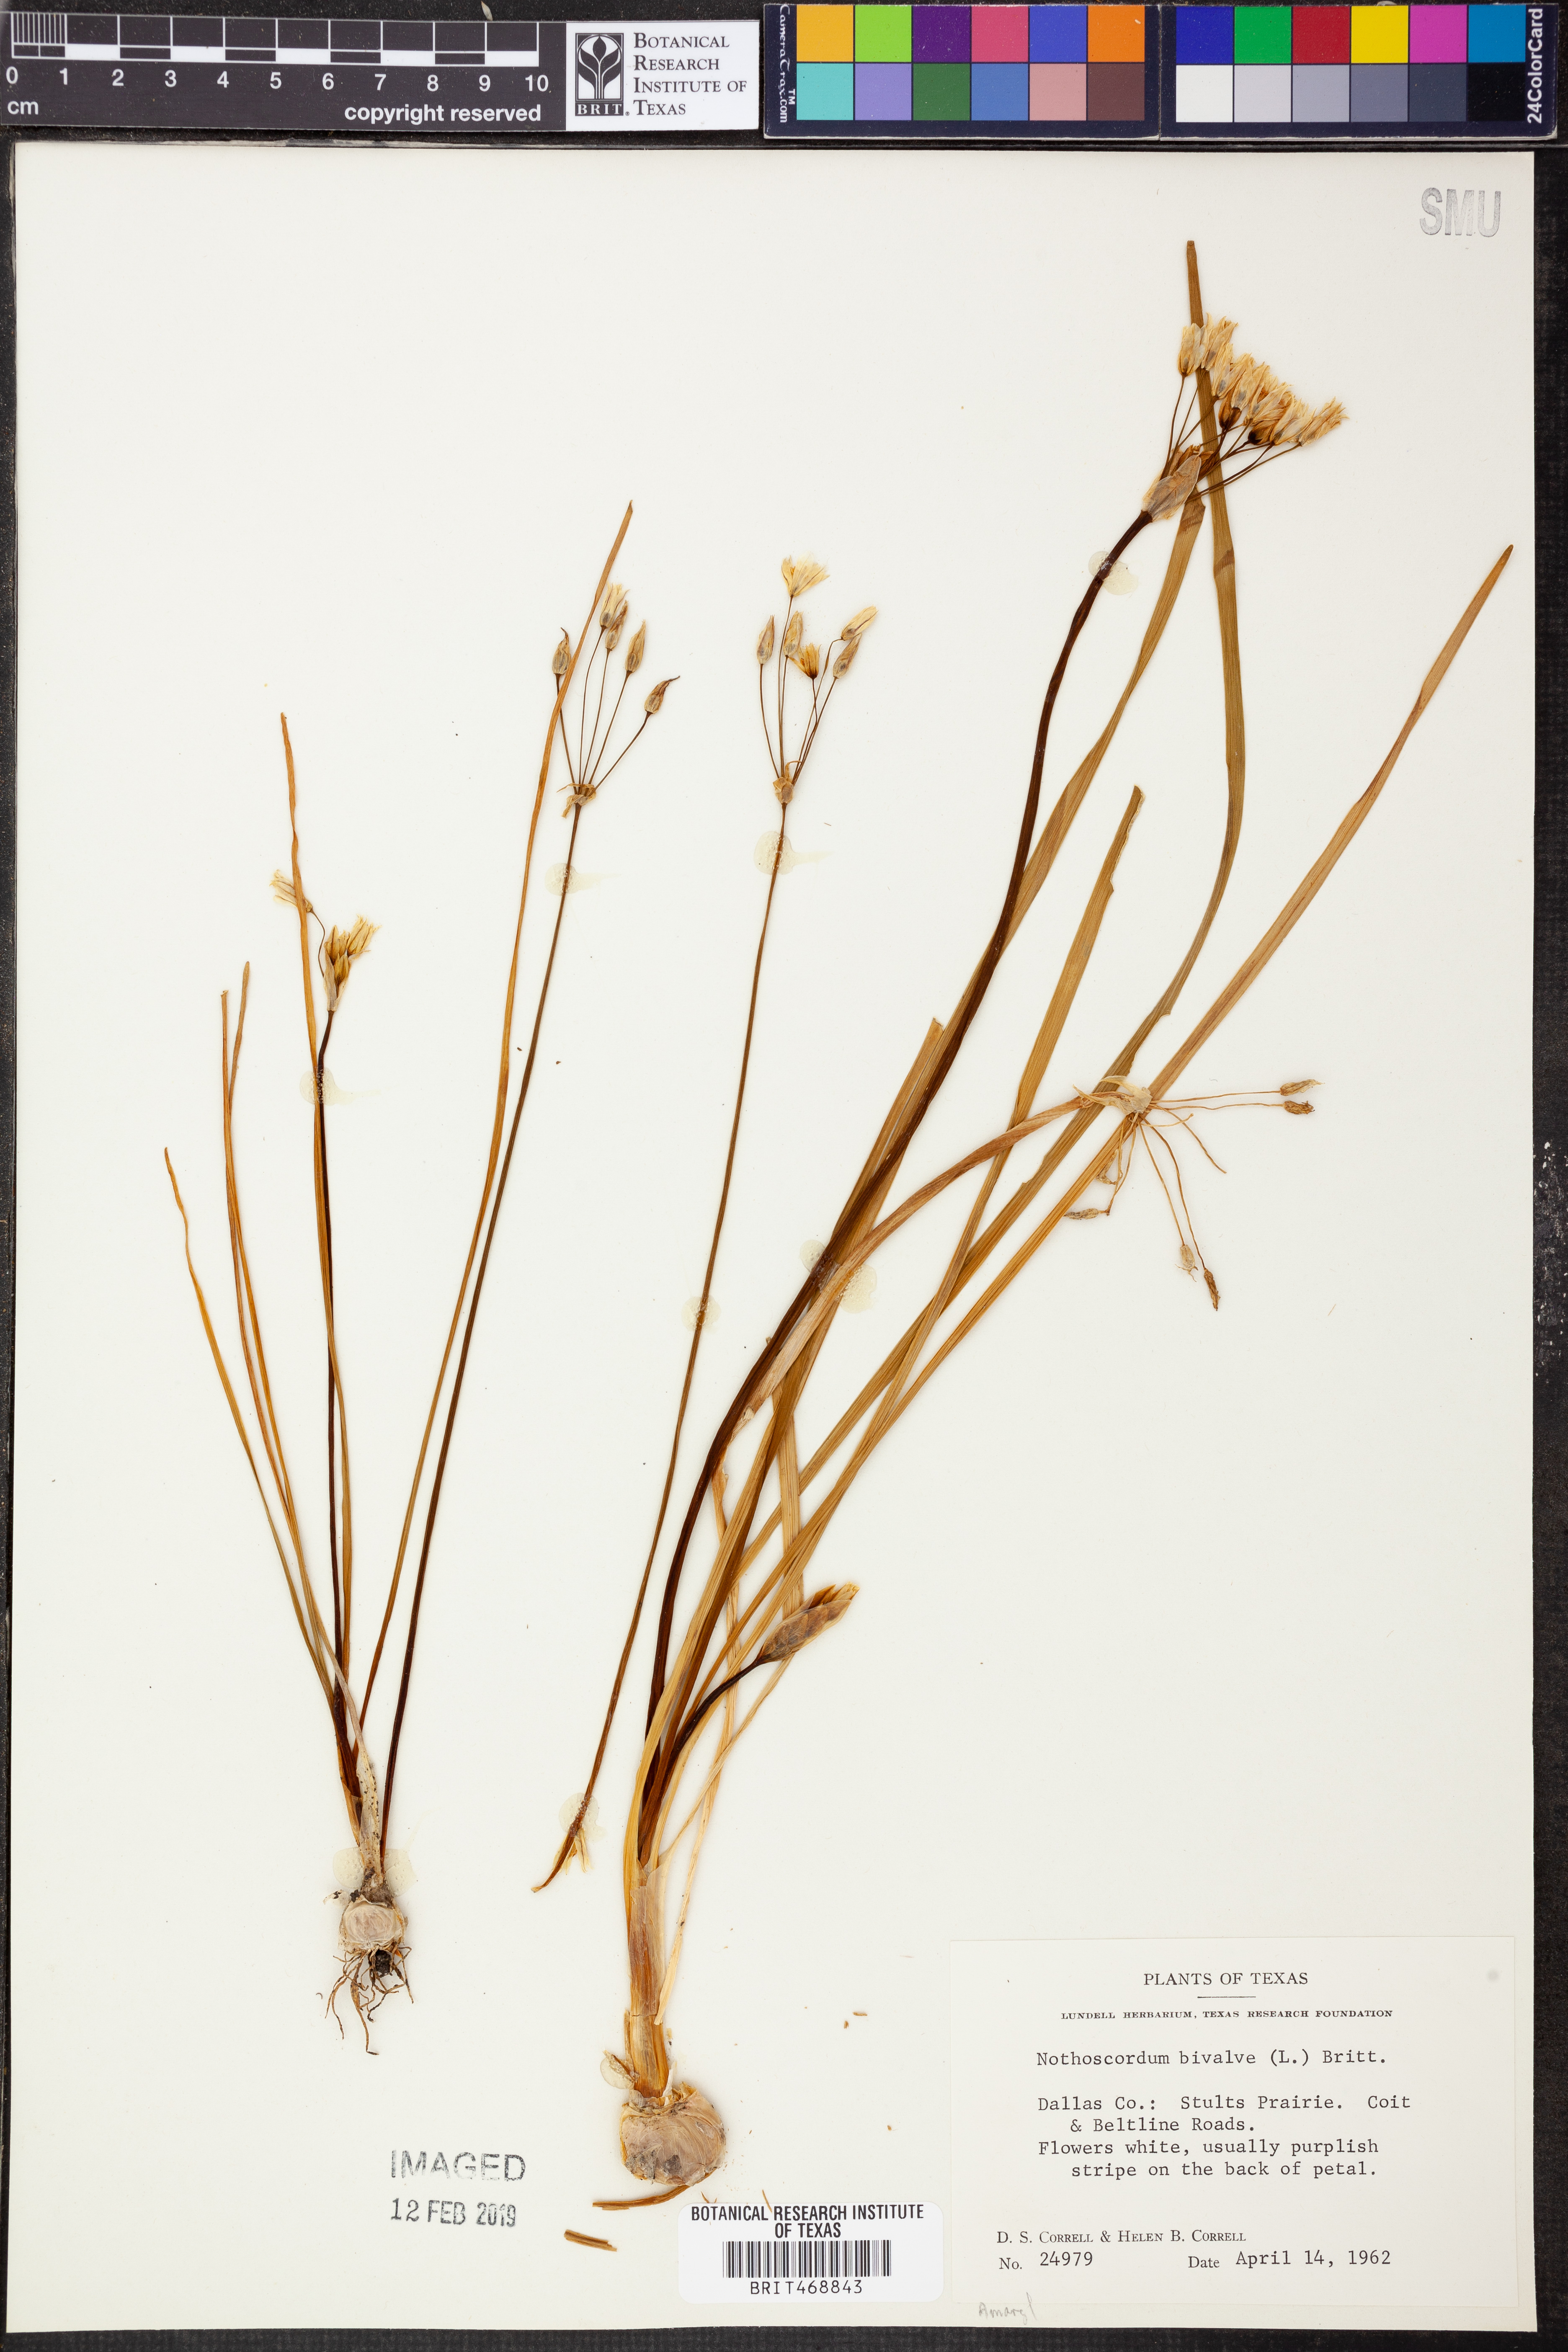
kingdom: Plantae
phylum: Tracheophyta
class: Liliopsida
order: Asparagales
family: Amaryllidaceae
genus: Nothoscordum
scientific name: Nothoscordum bivalve
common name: Crow-poison
